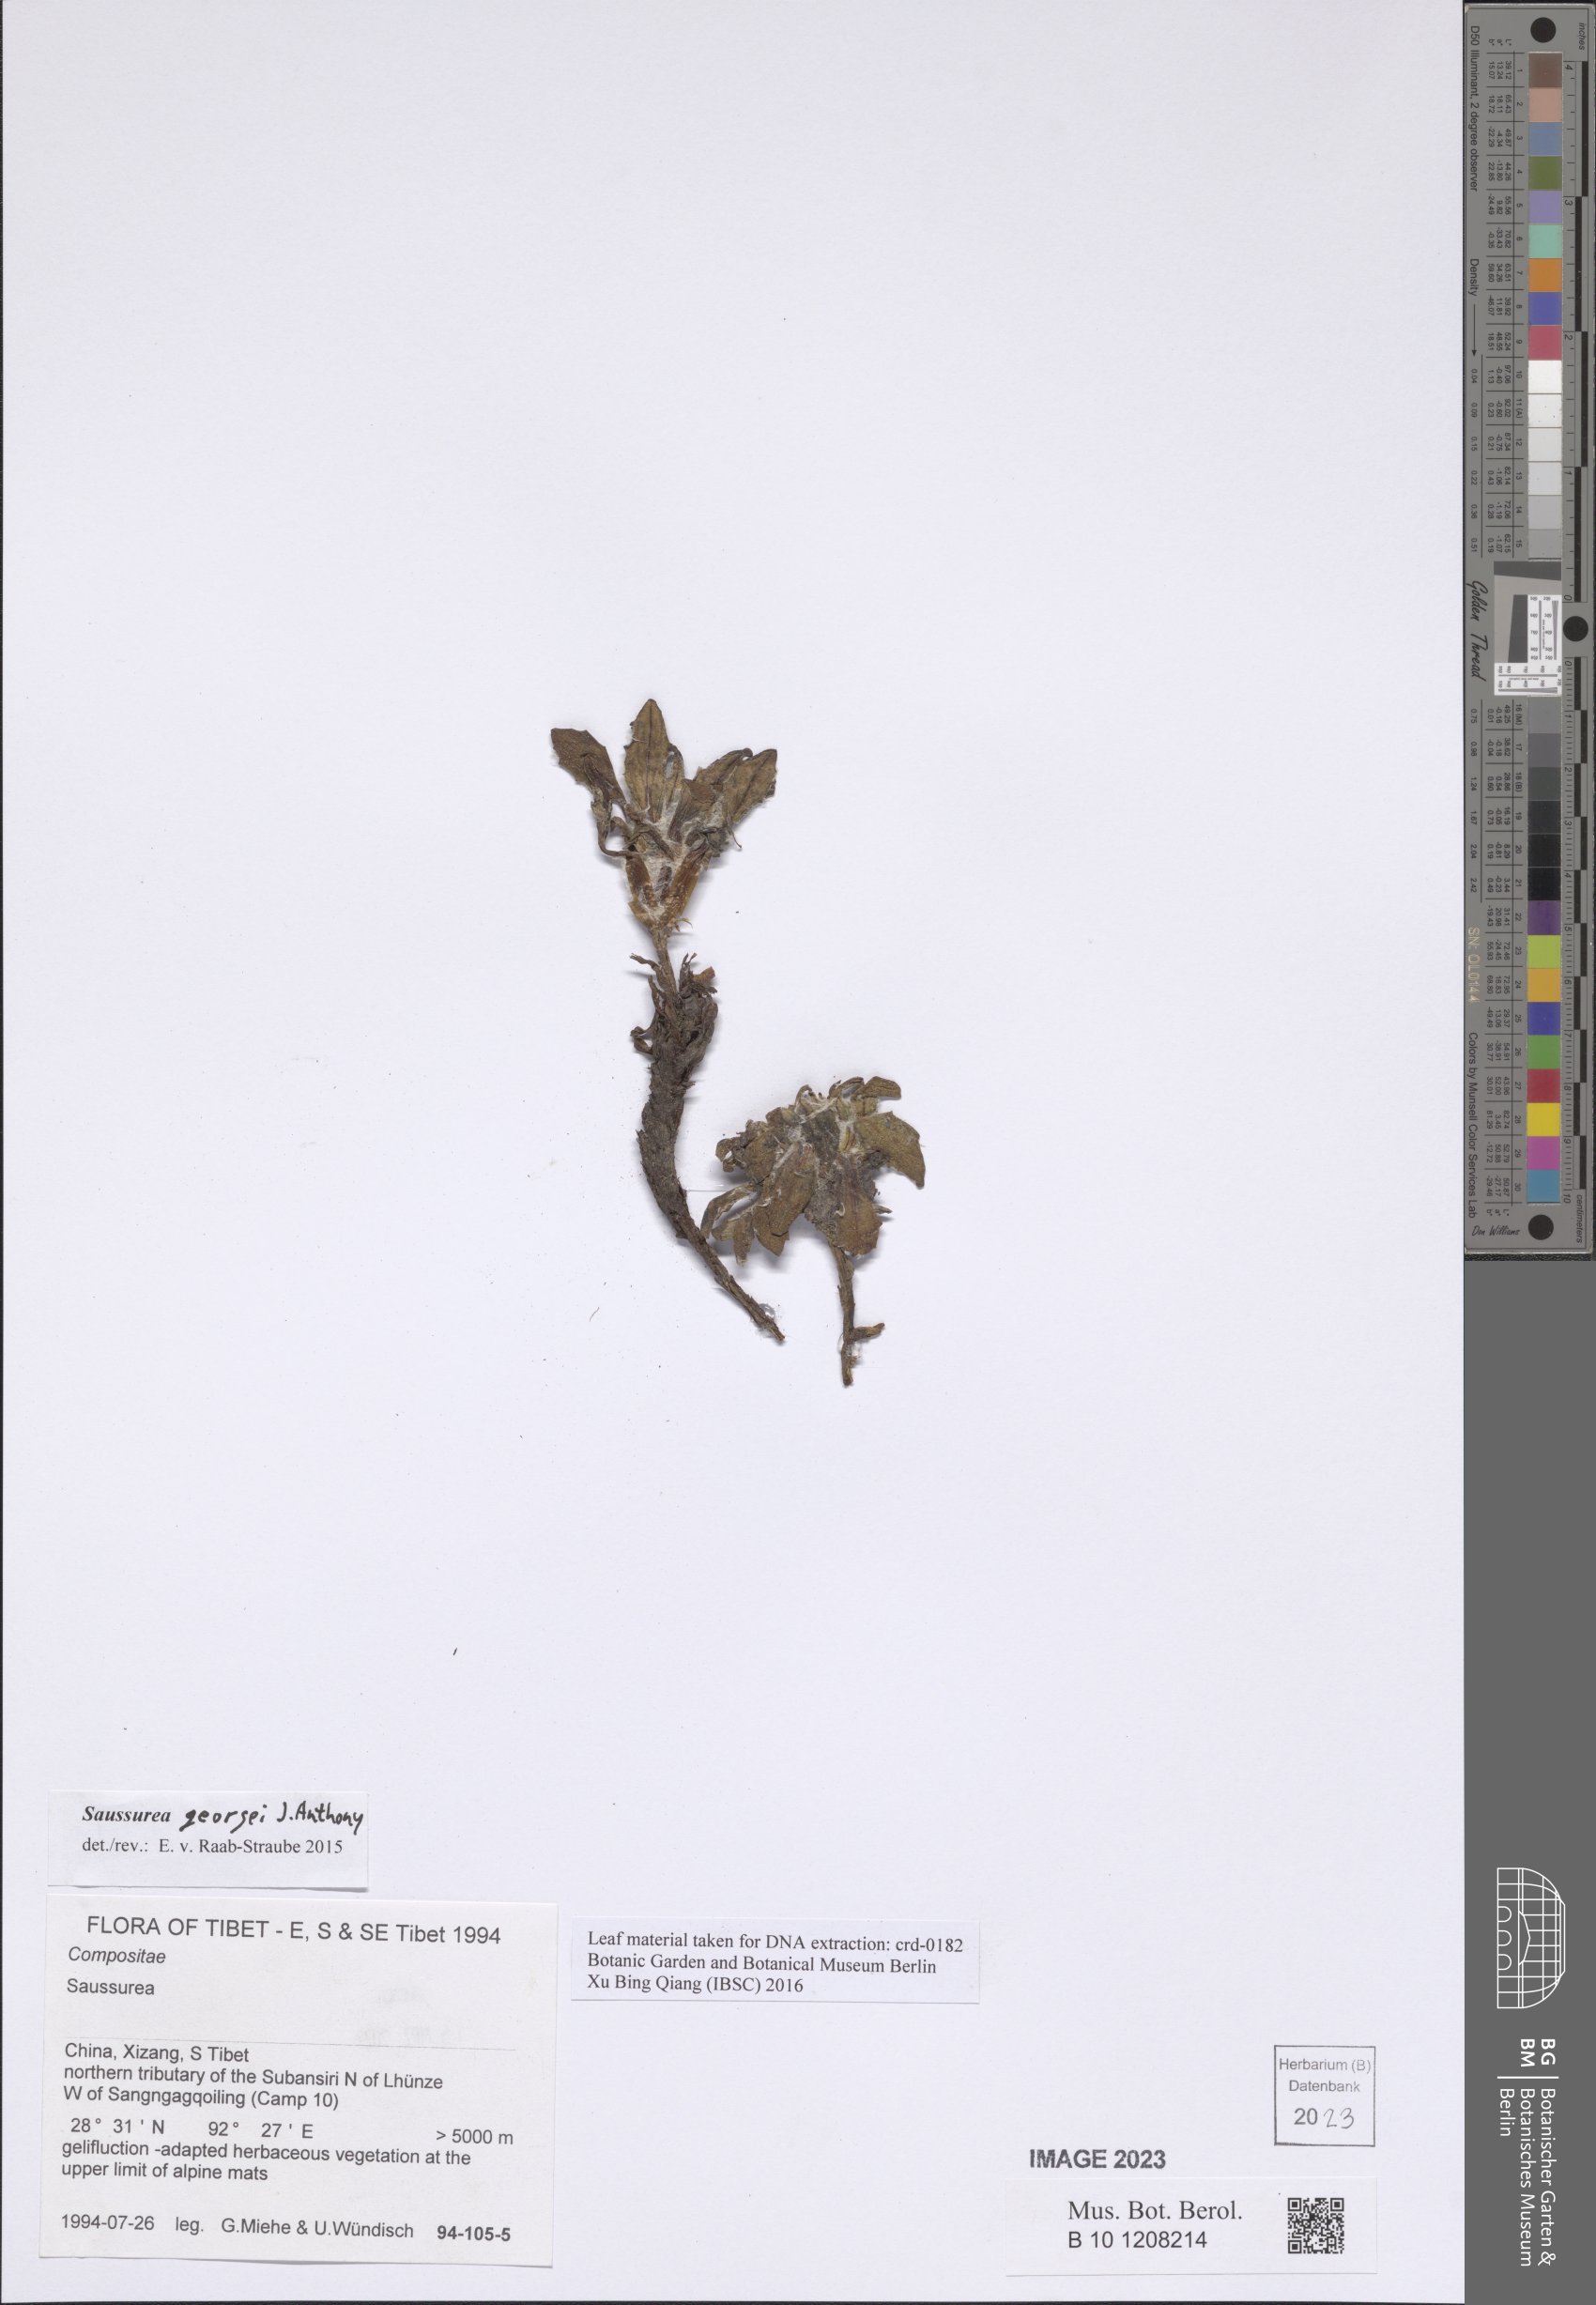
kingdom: Plantae
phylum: Tracheophyta
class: Magnoliopsida
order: Asterales
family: Asteraceae
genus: Saussurea
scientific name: Saussurea georgei
